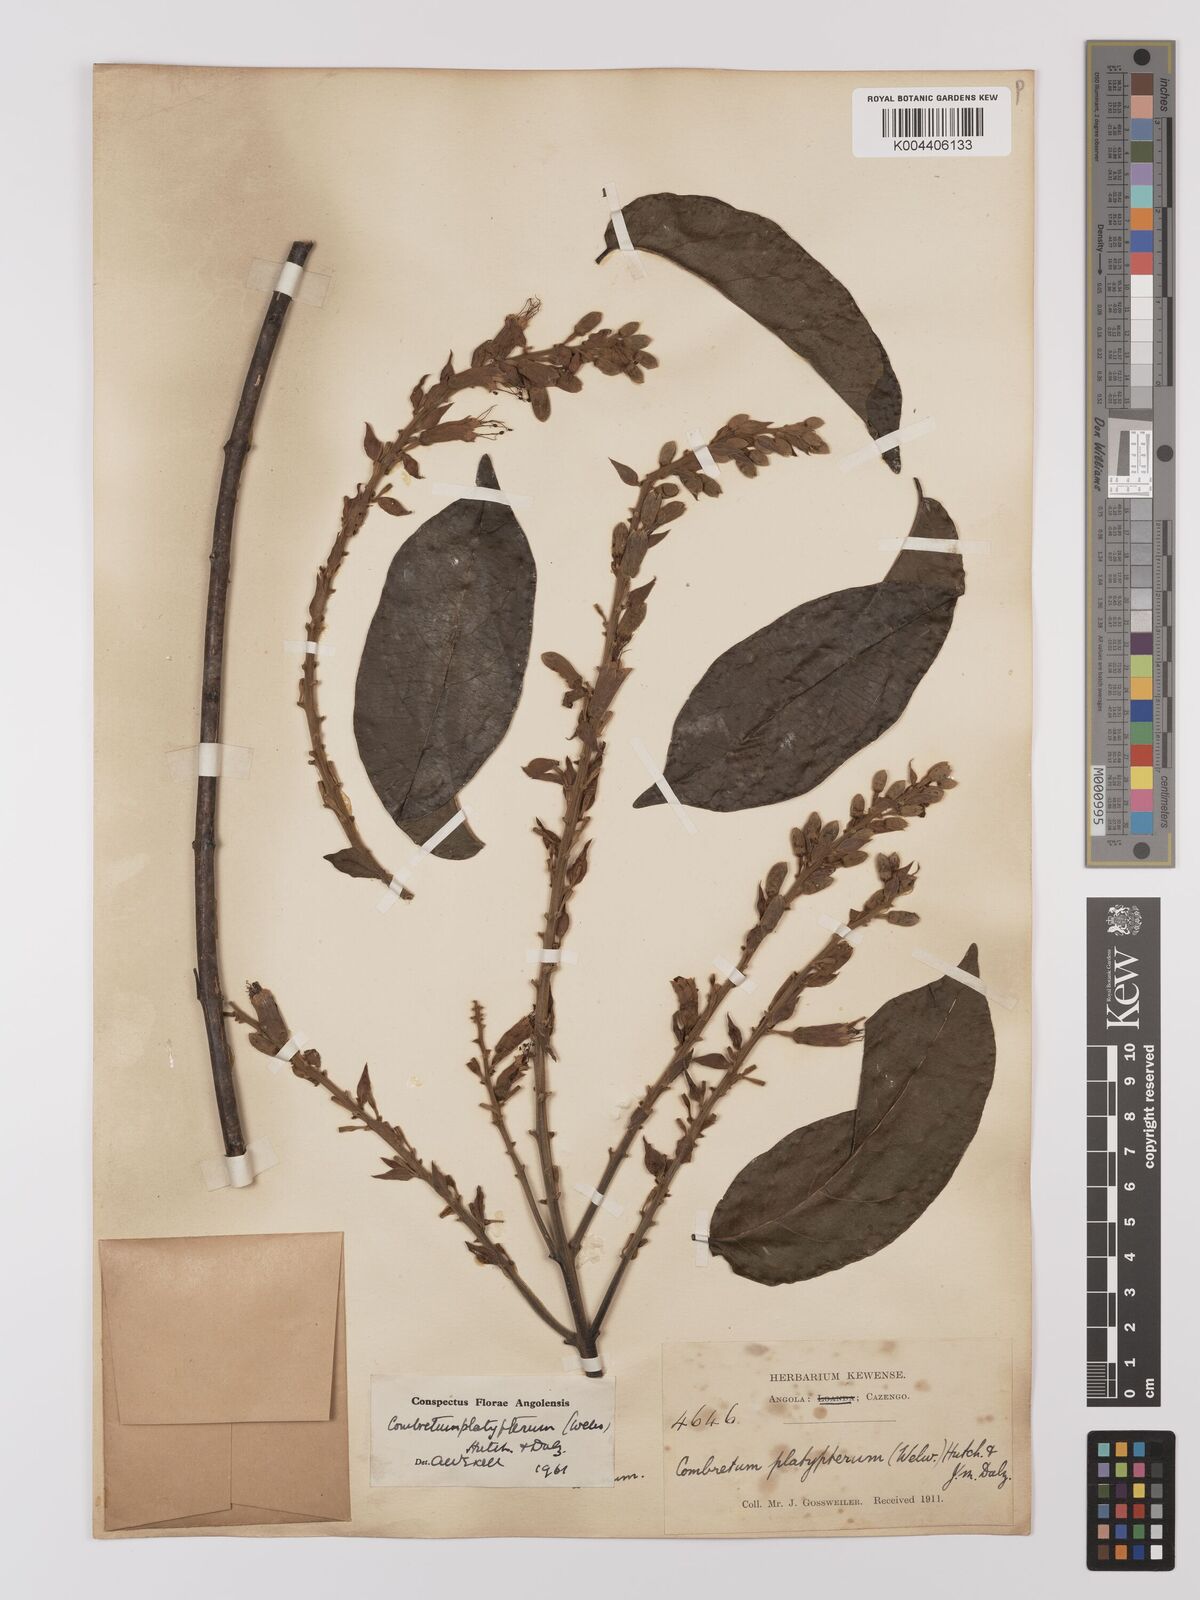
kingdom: Plantae
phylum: Tracheophyta
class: Magnoliopsida
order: Myrtales
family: Combretaceae
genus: Combretum
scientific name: Combretum platypterum
